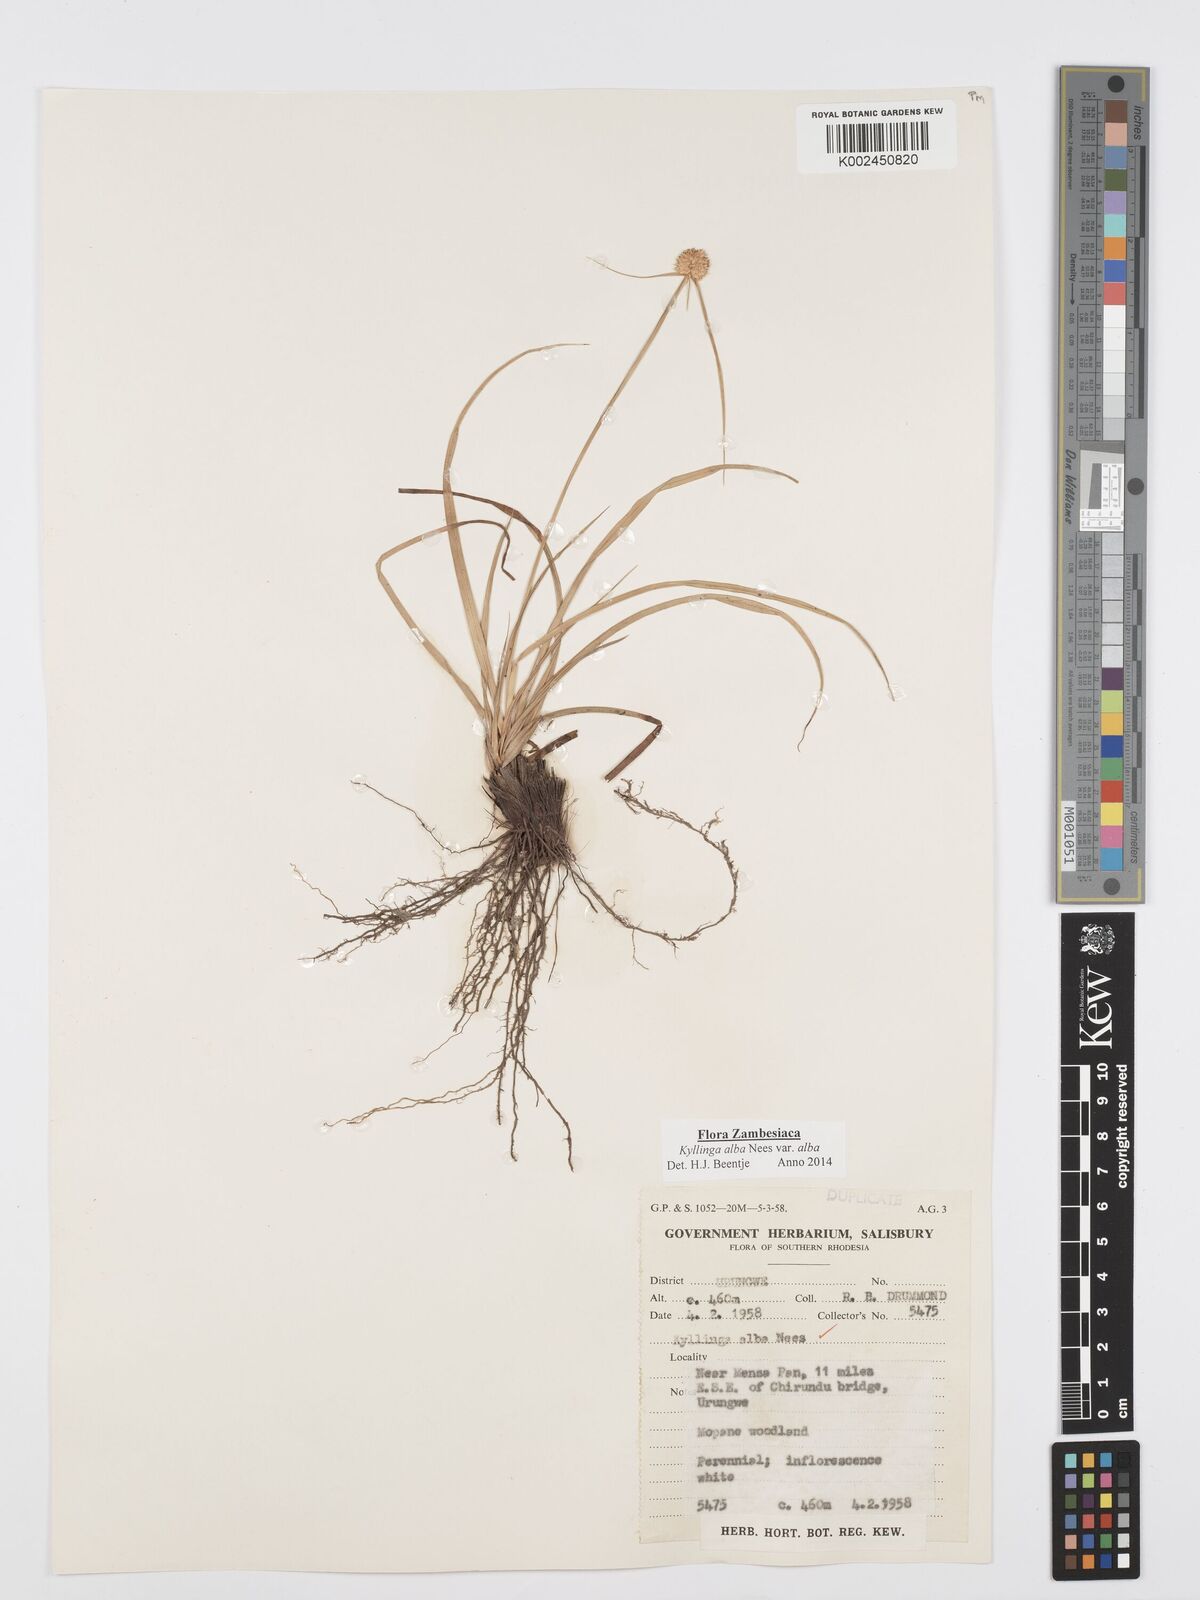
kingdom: Plantae
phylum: Tracheophyta
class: Liliopsida
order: Poales
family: Cyperaceae
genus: Cyperus
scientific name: Cyperus
